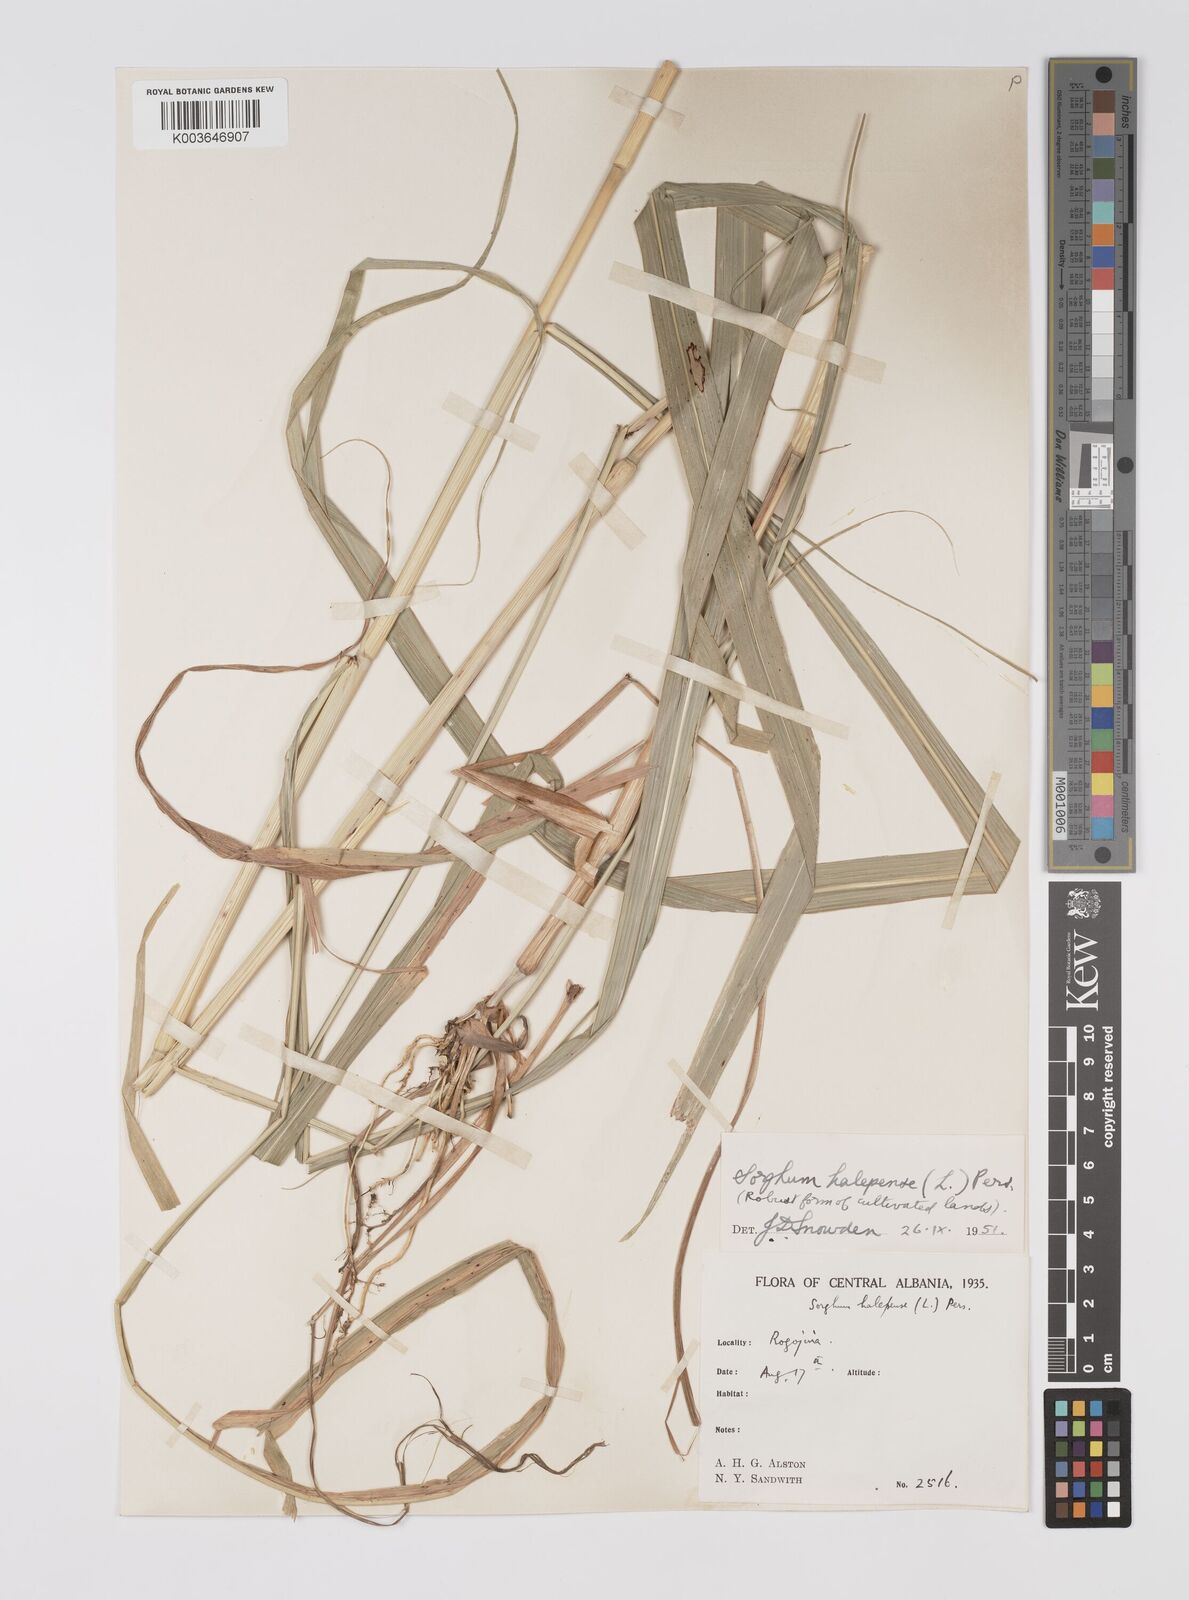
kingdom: Plantae
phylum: Tracheophyta
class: Liliopsida
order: Poales
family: Poaceae
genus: Sorghum
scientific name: Sorghum halepense
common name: Johnson-grass
